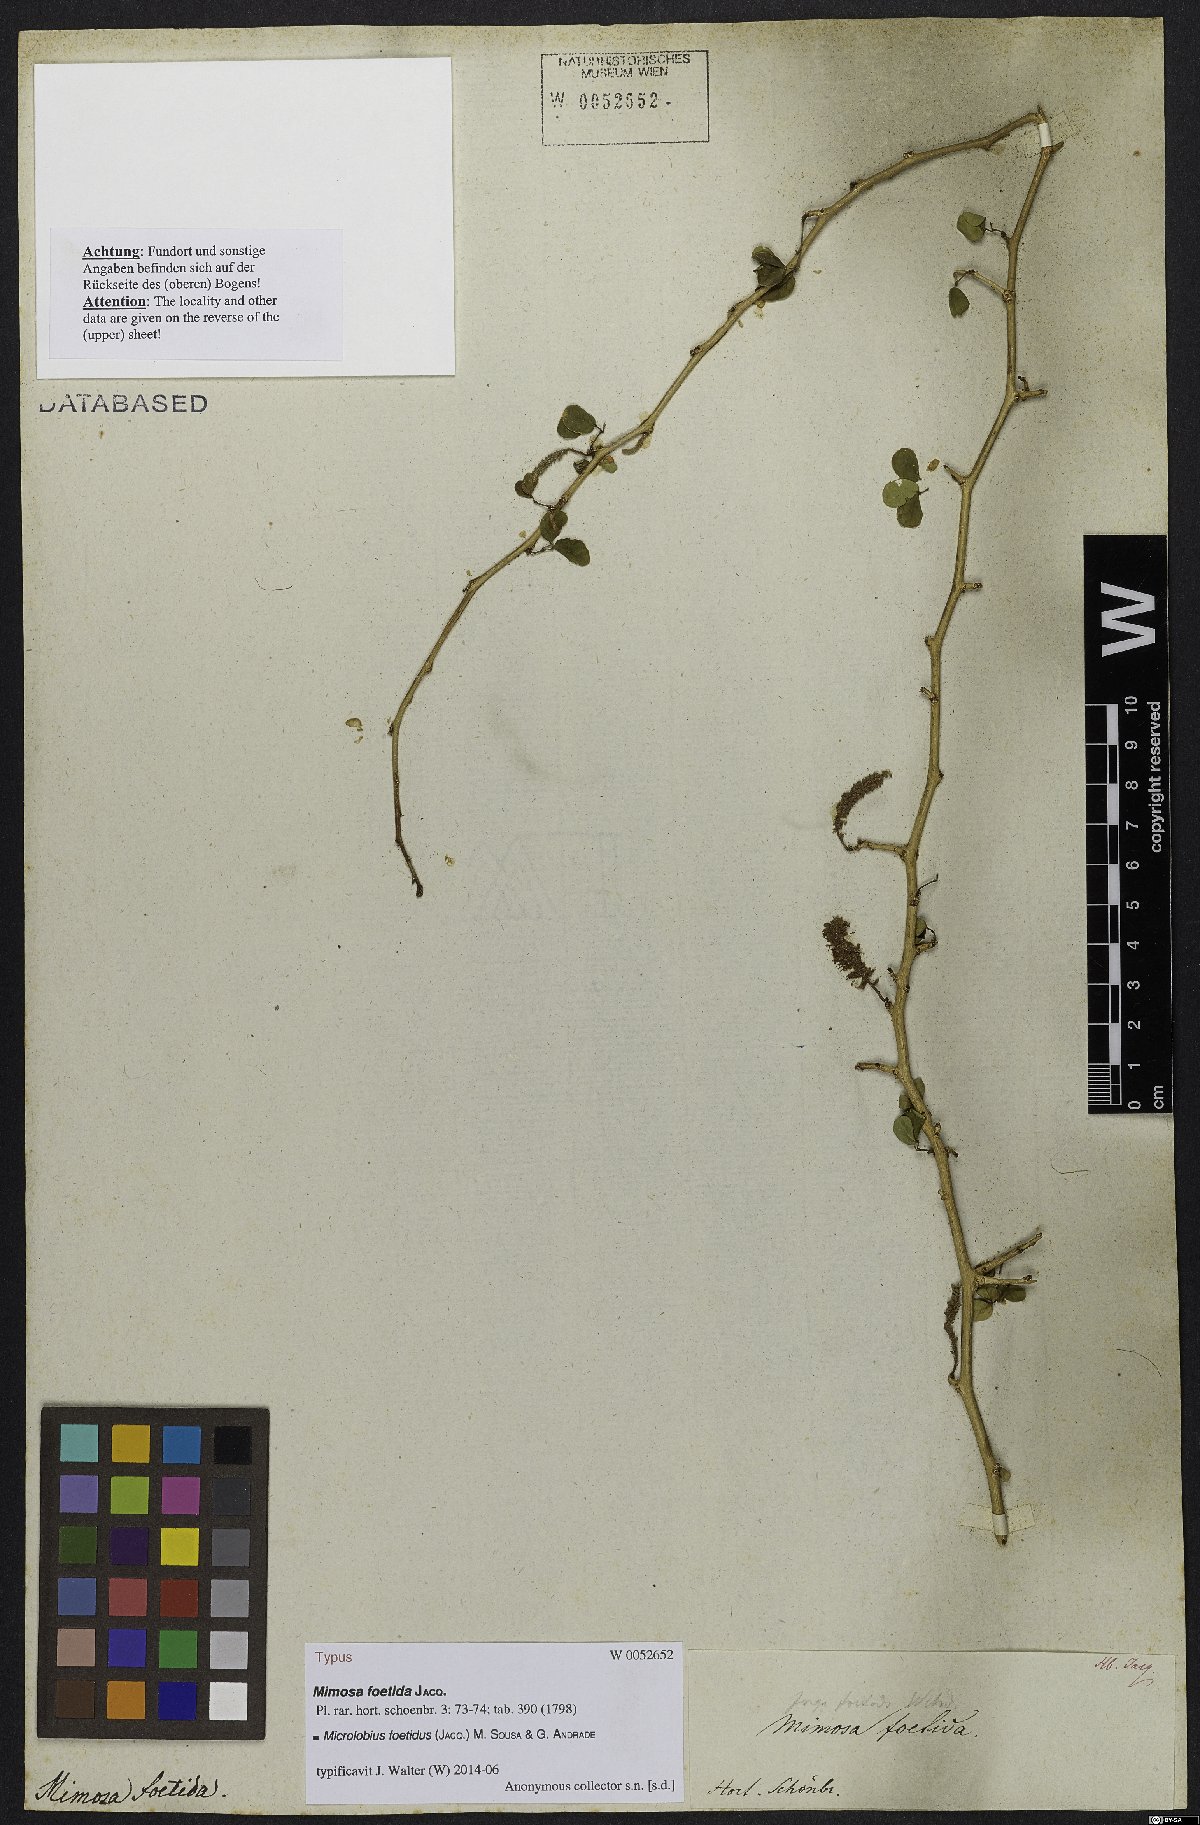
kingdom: Plantae
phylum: Tracheophyta
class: Magnoliopsida
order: Fabales
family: Fabaceae
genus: Microlobius
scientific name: Microlobius foetidus
